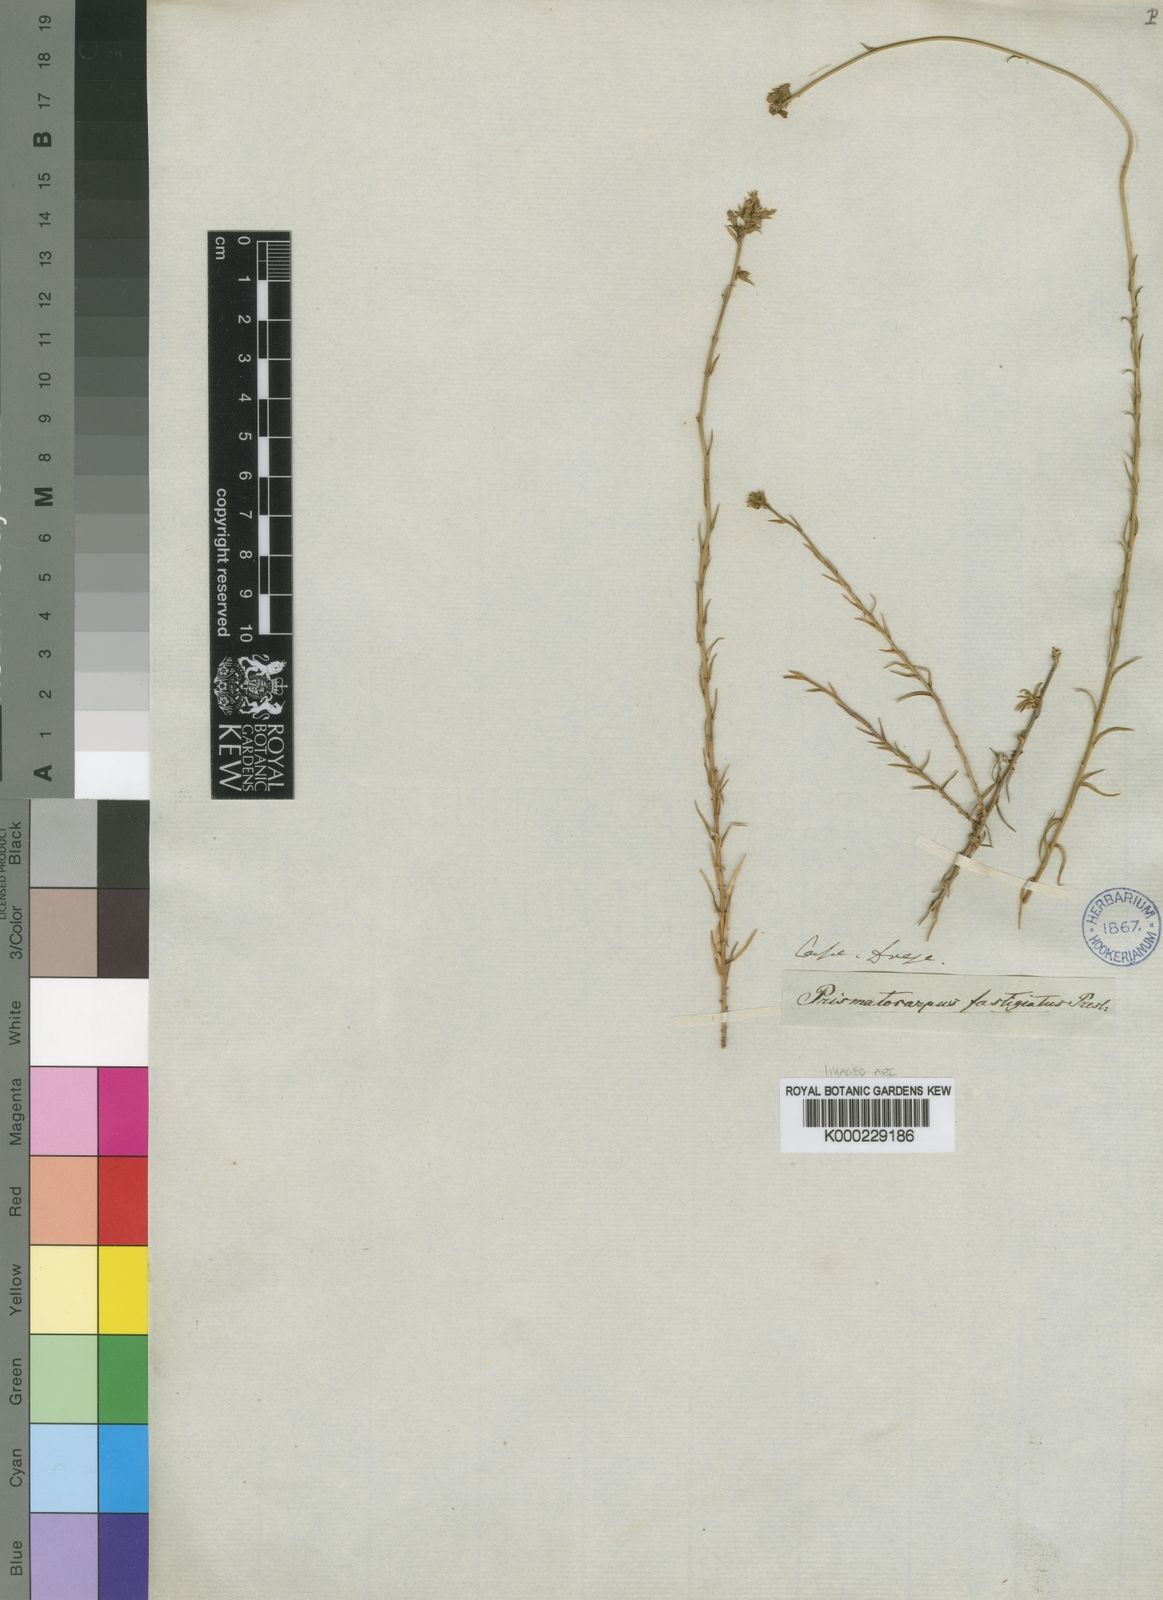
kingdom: Plantae
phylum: Tracheophyta
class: Magnoliopsida
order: Asterales
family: Campanulaceae
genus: Prismatocarpus
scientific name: Prismatocarpus fastigiatus
